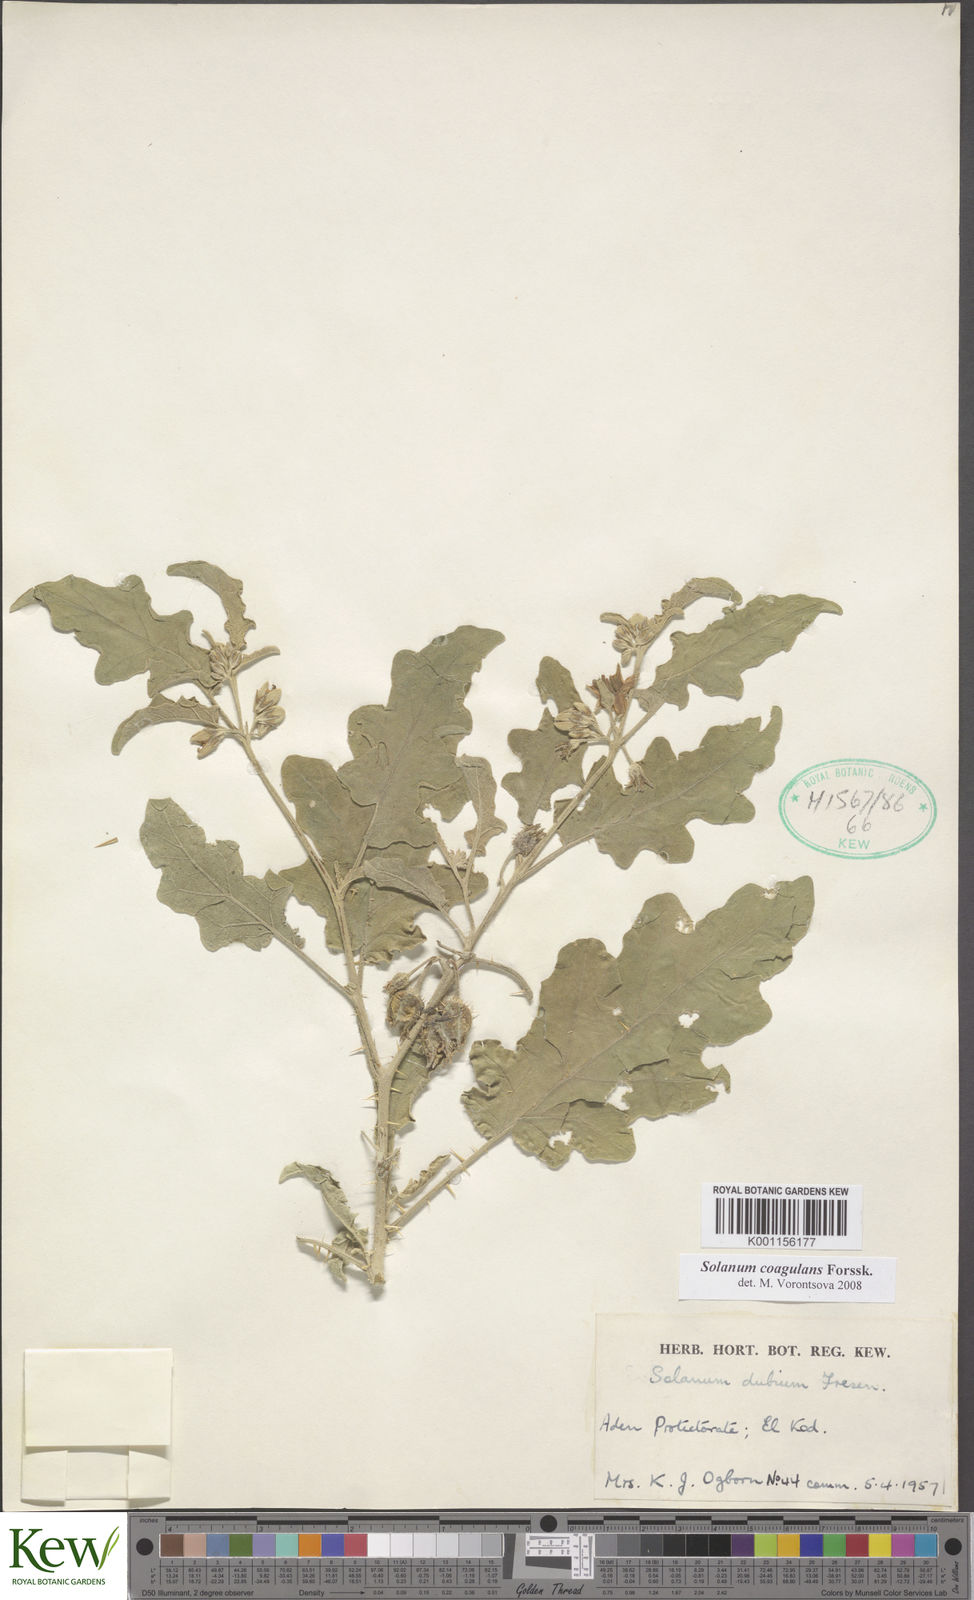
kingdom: Plantae
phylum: Tracheophyta
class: Magnoliopsida
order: Solanales
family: Solanaceae
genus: Solanum
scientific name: Solanum coagulans
